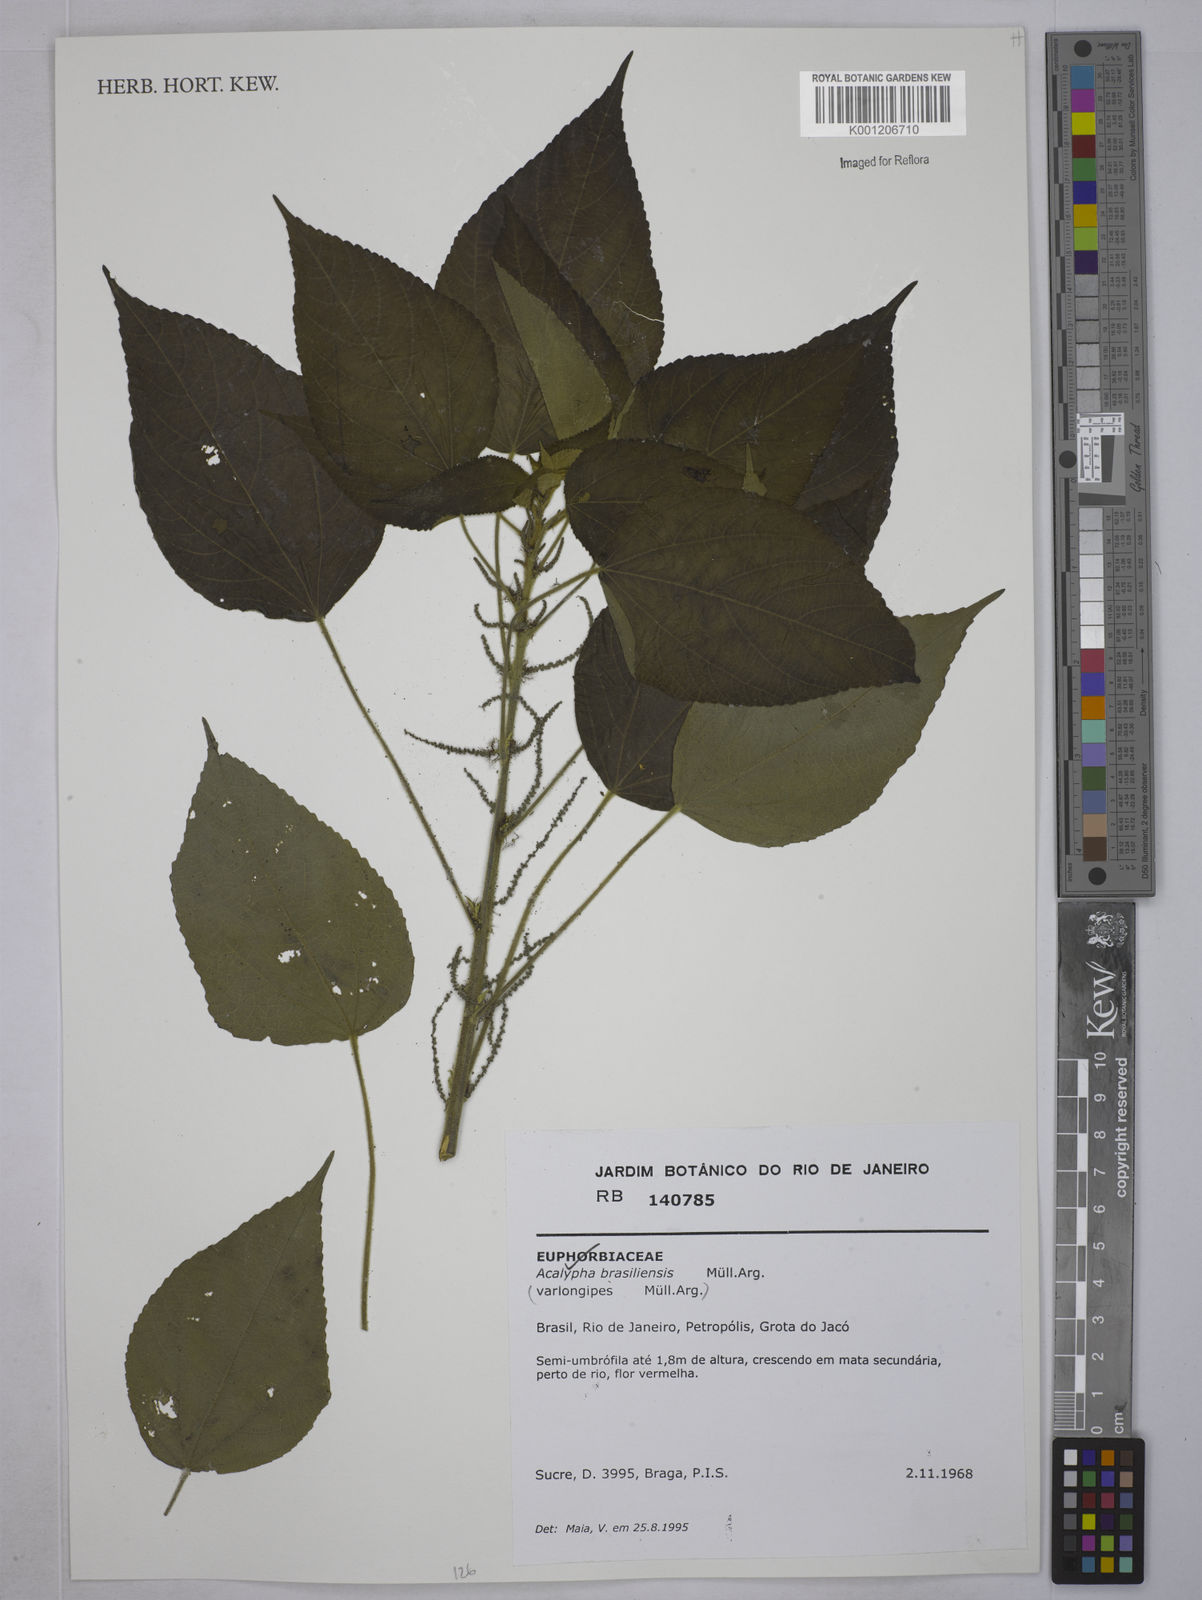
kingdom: Plantae
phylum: Tracheophyta
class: Magnoliopsida
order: Malpighiales
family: Euphorbiaceae
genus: Acalypha
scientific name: Acalypha
